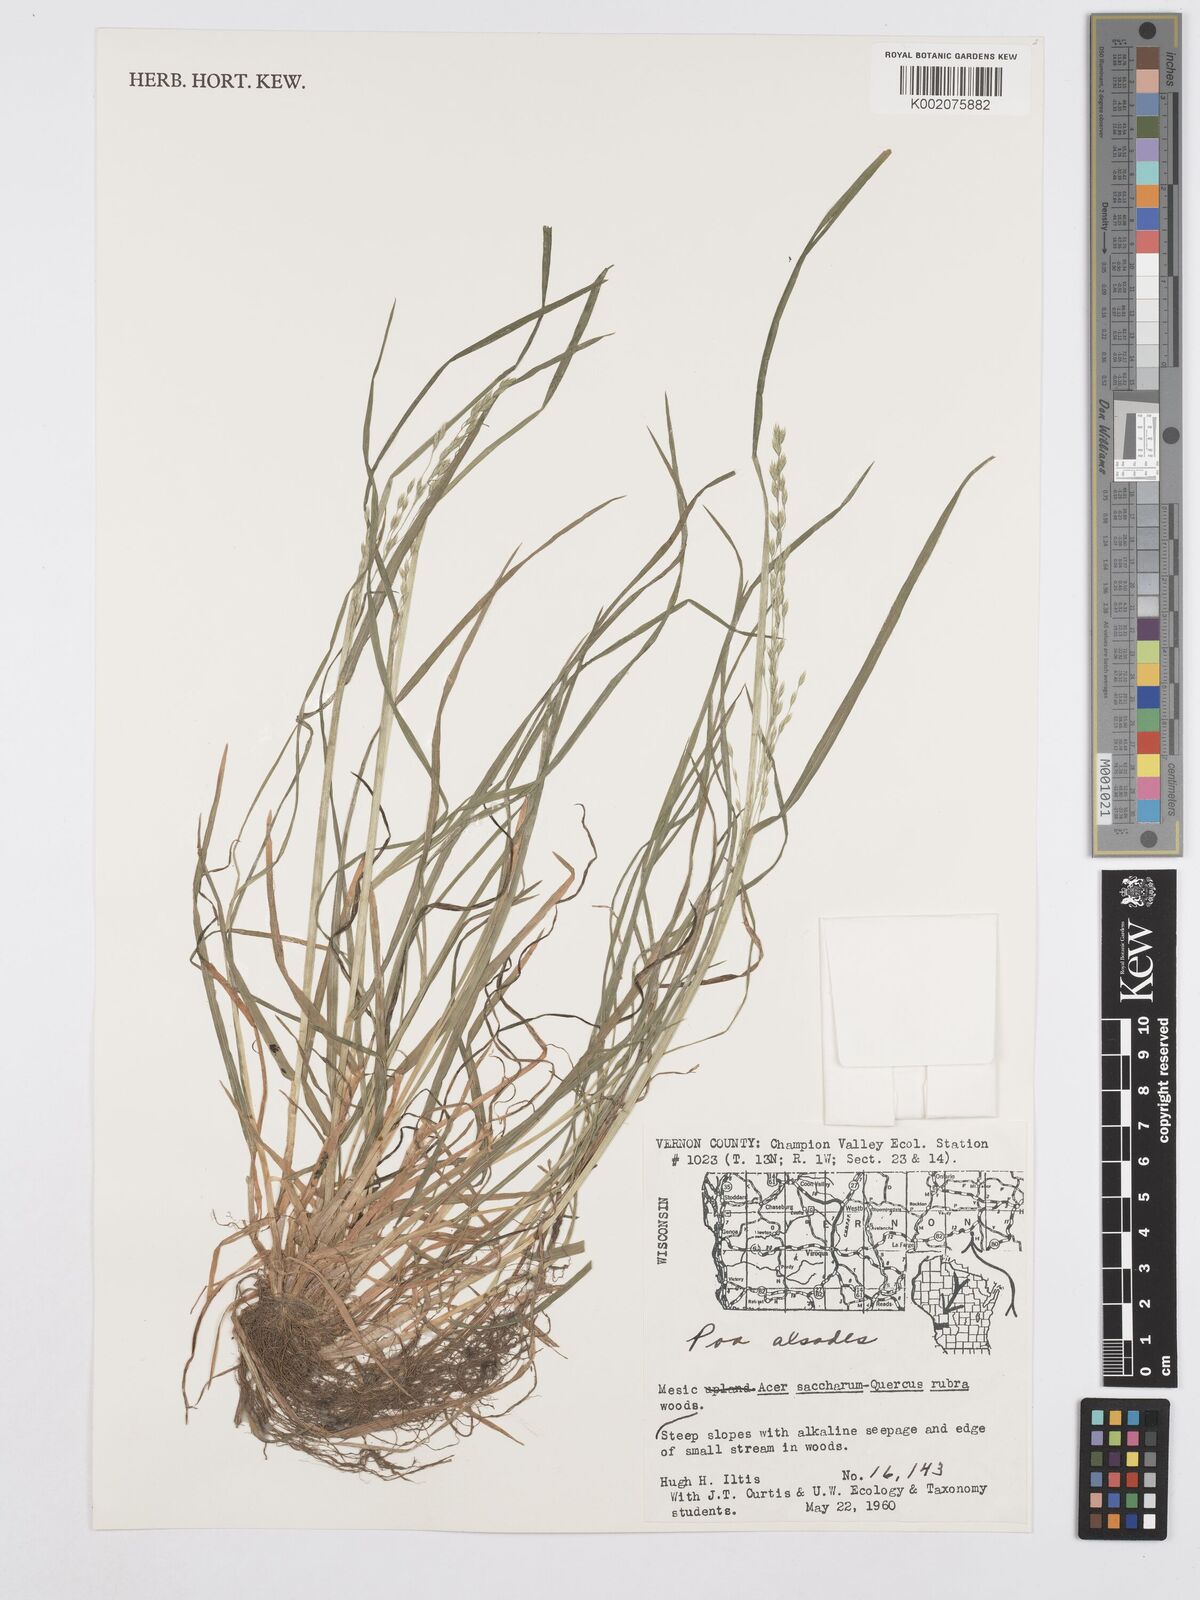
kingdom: Plantae
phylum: Tracheophyta
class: Liliopsida
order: Poales
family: Poaceae
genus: Poa
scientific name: Poa alsodes
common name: Grove bluegrass
